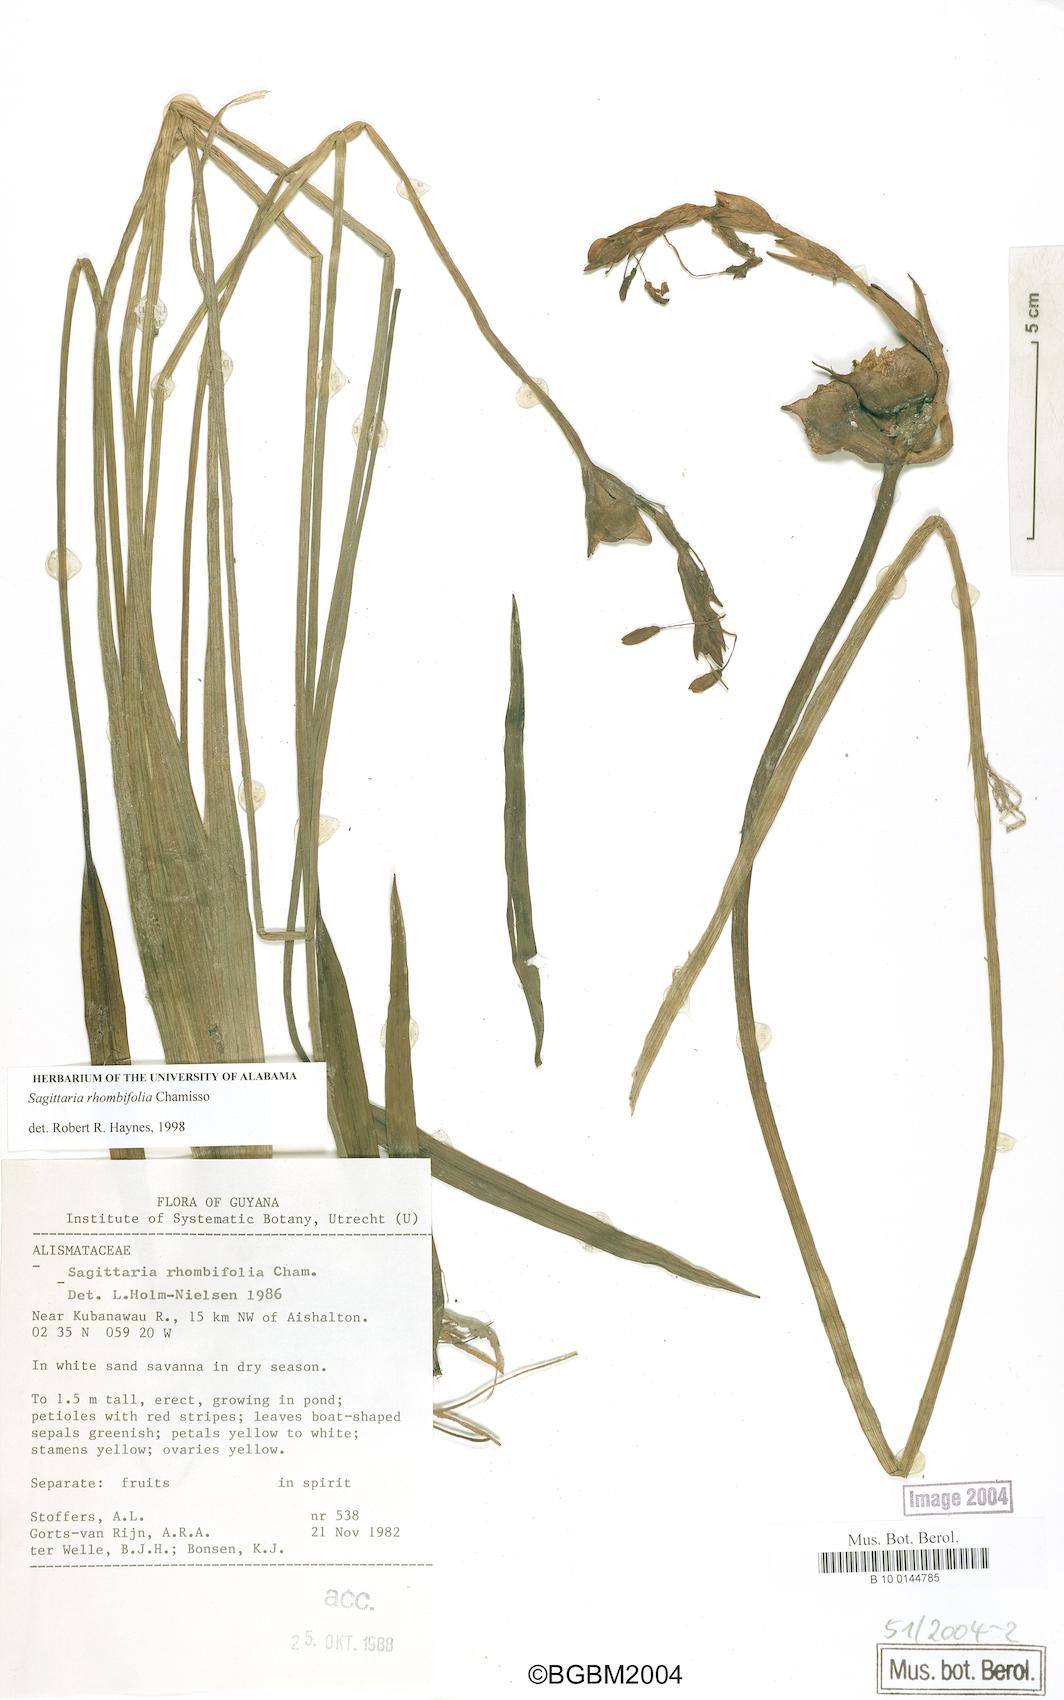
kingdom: Plantae
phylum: Tracheophyta
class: Liliopsida
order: Alismatales
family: Alismataceae
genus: Sagittaria
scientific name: Sagittaria rhombifolia
